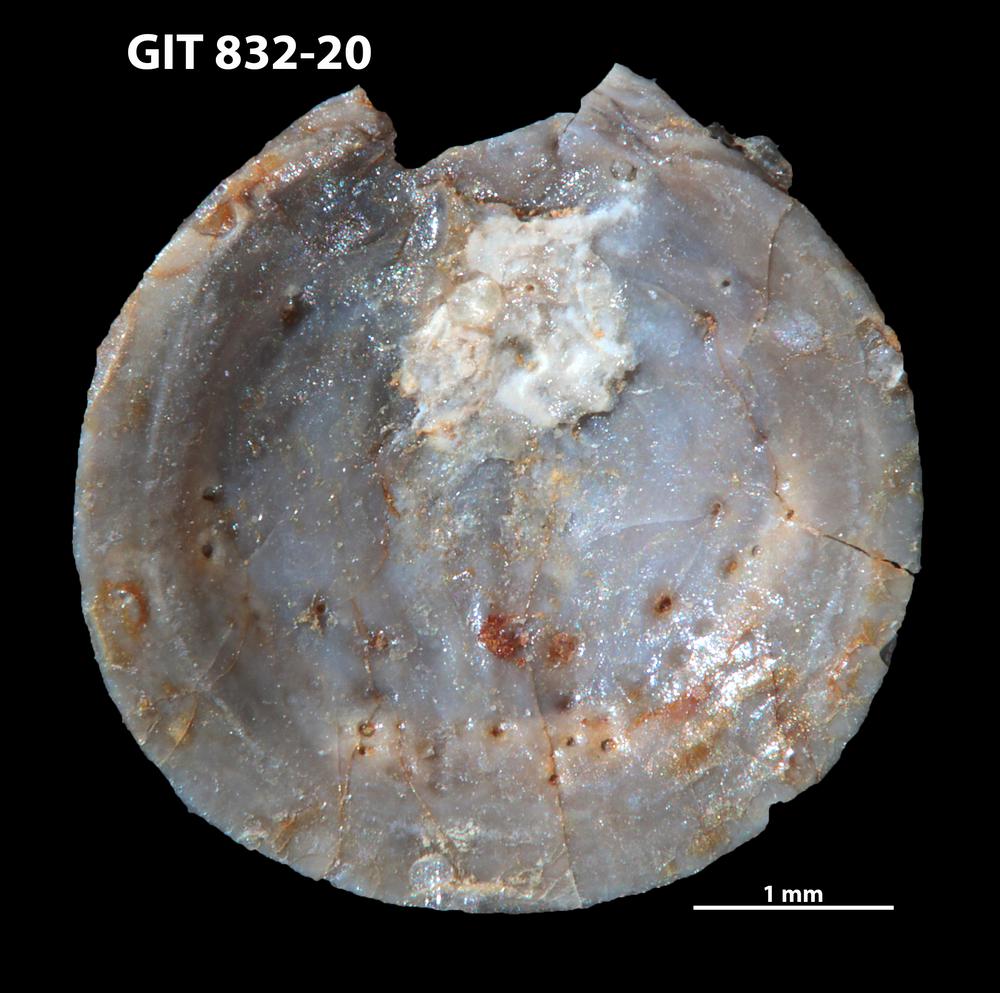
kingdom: Animalia
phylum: Brachiopoda
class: Lingulata
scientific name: Lingulata
